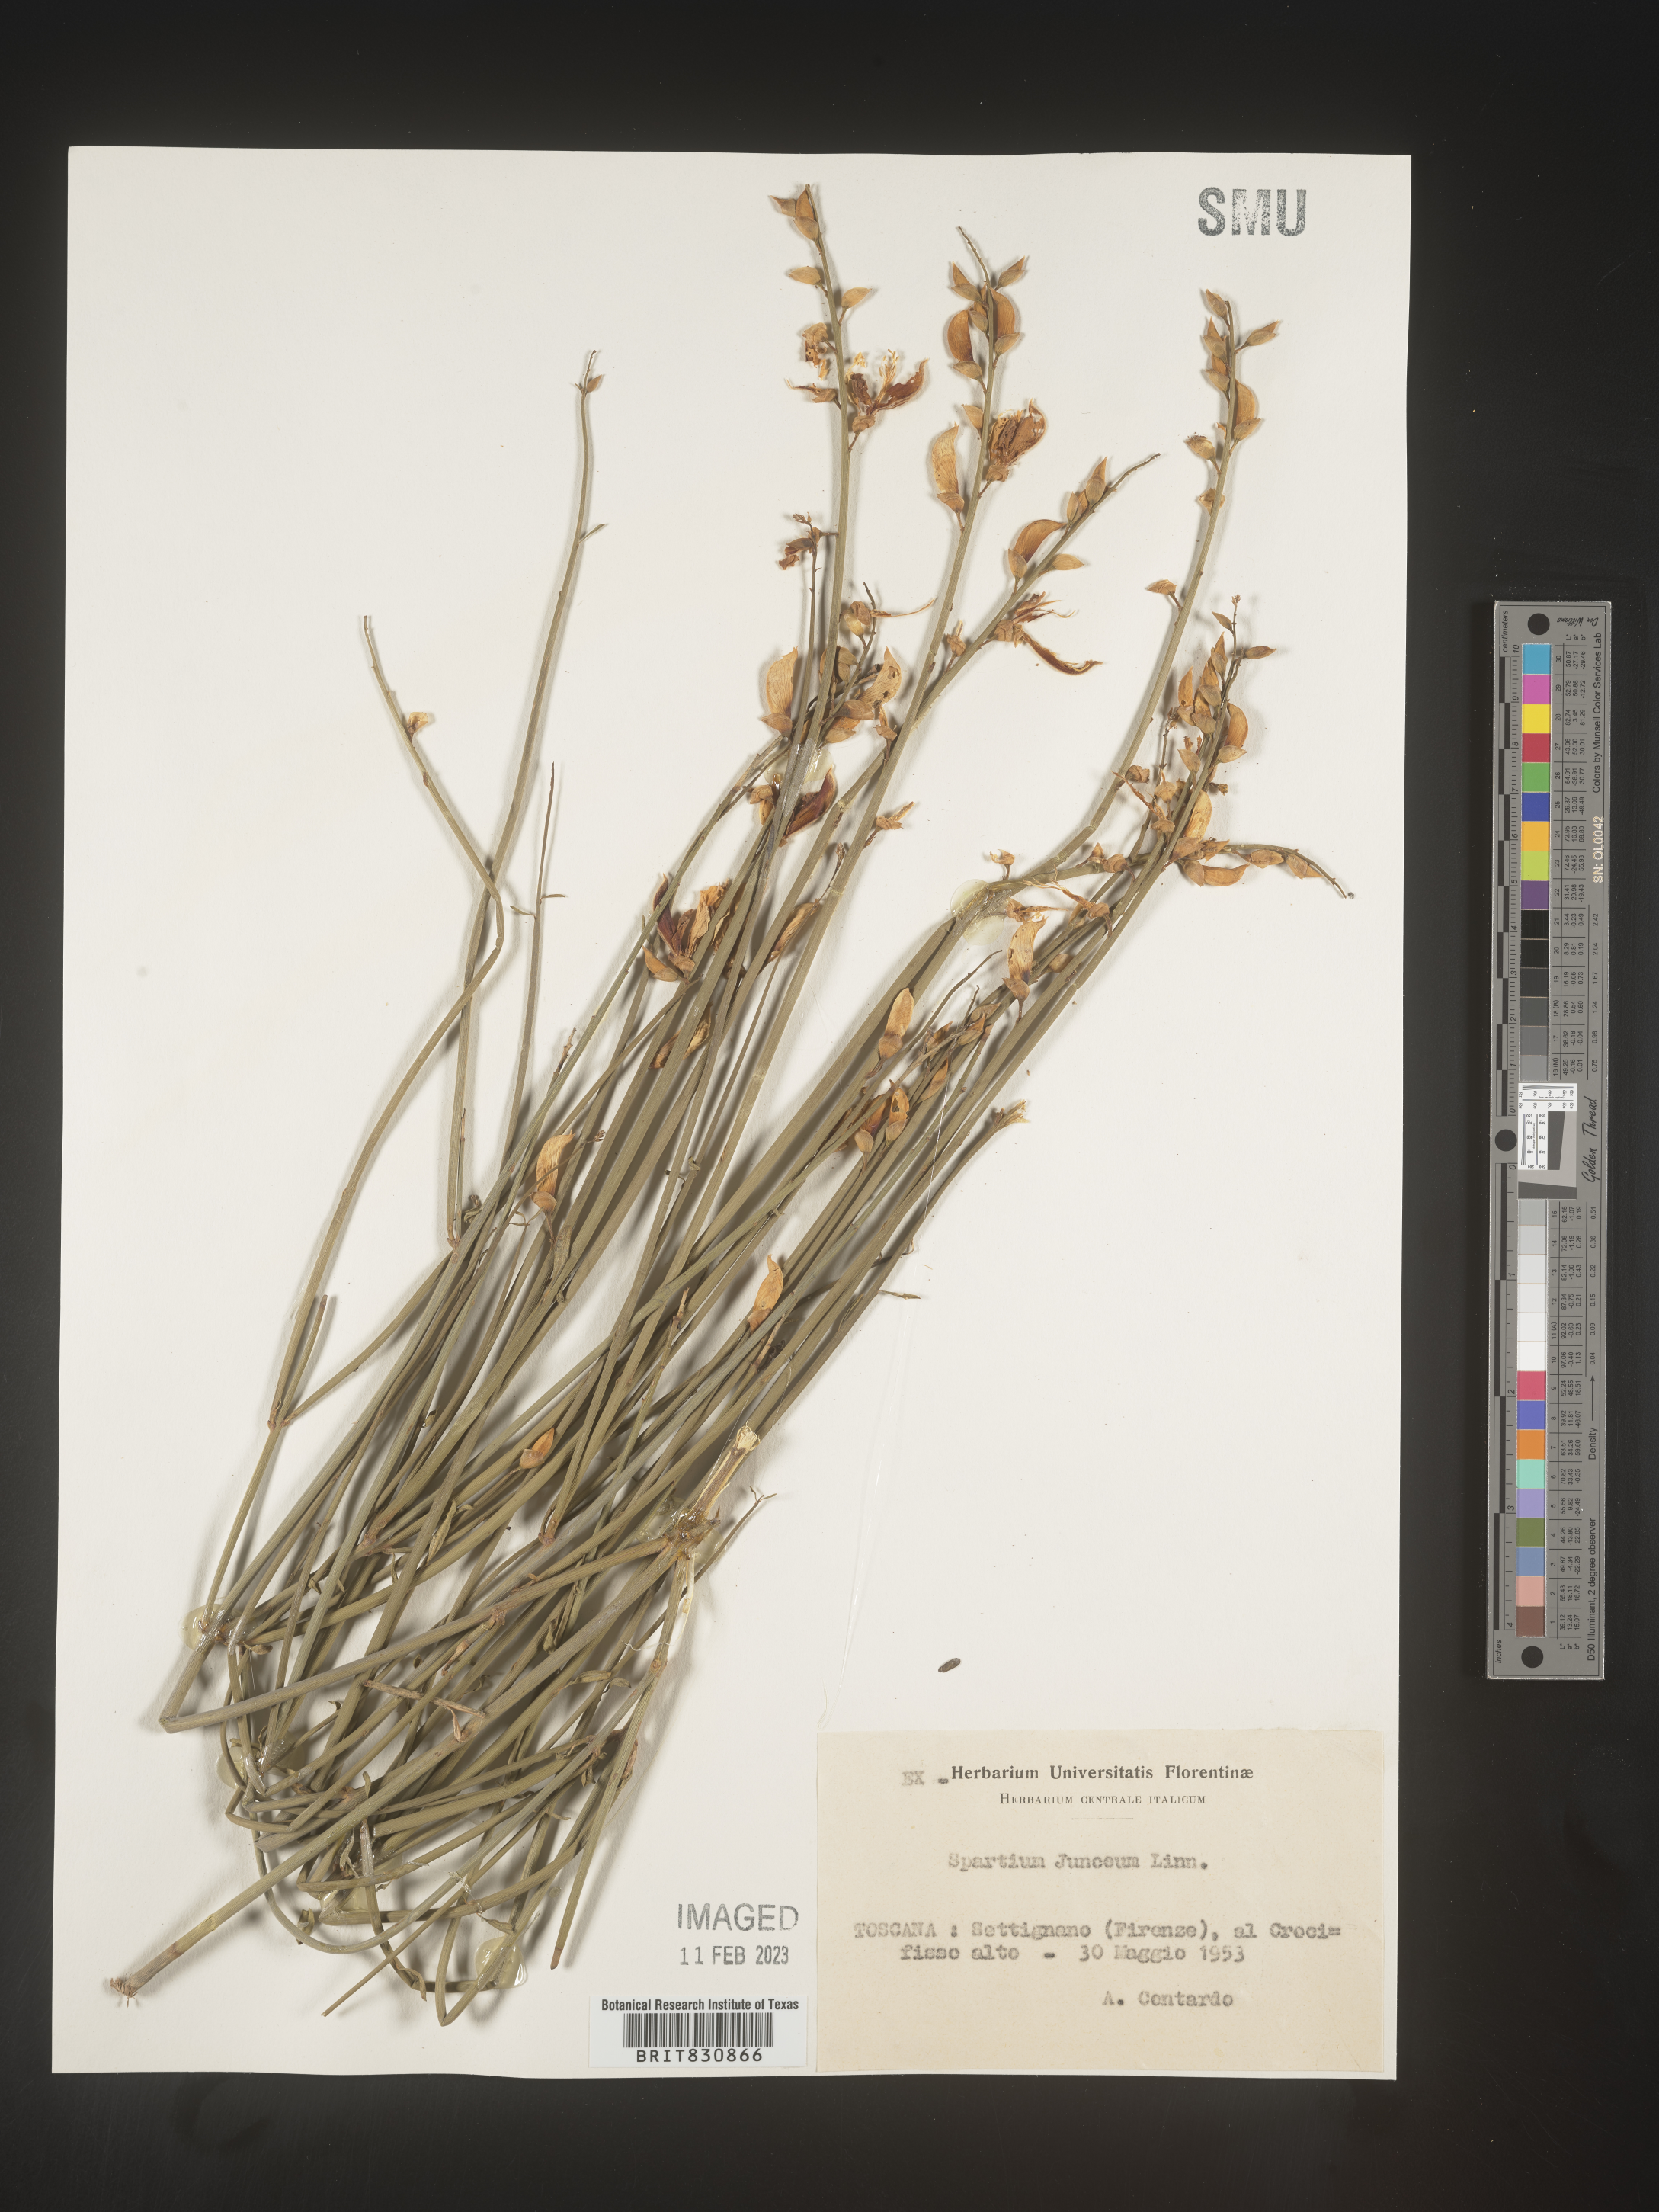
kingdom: Plantae
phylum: Tracheophyta
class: Magnoliopsida
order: Fabales
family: Fabaceae
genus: Spartium
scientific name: Spartium
